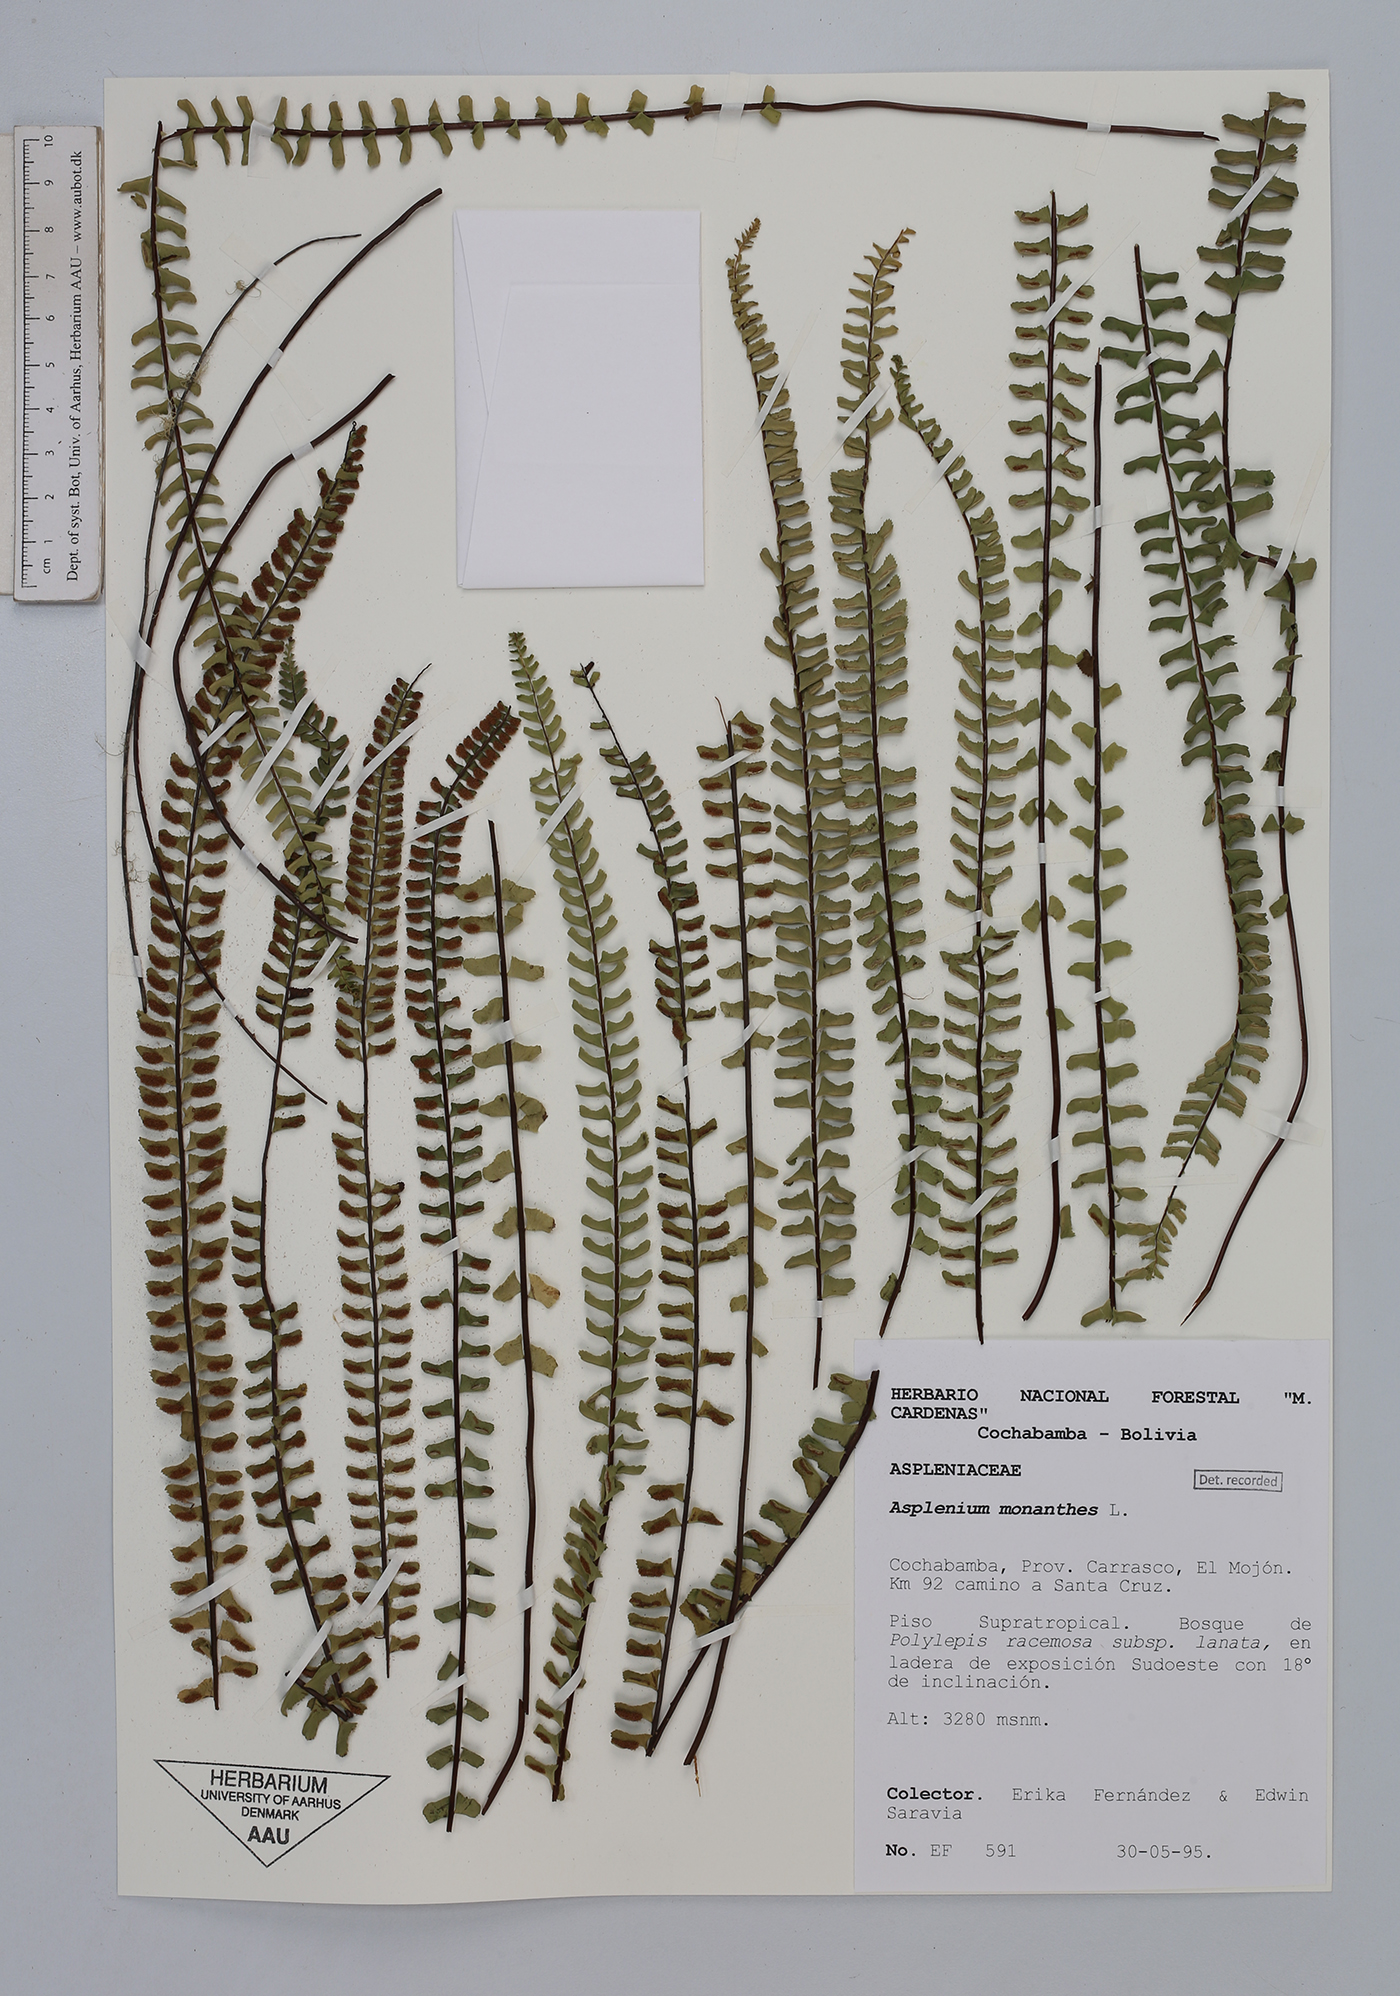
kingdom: Plantae
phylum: Tracheophyta
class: Polypodiopsida
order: Polypodiales
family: Aspleniaceae
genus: Asplenium
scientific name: Asplenium monanthes
